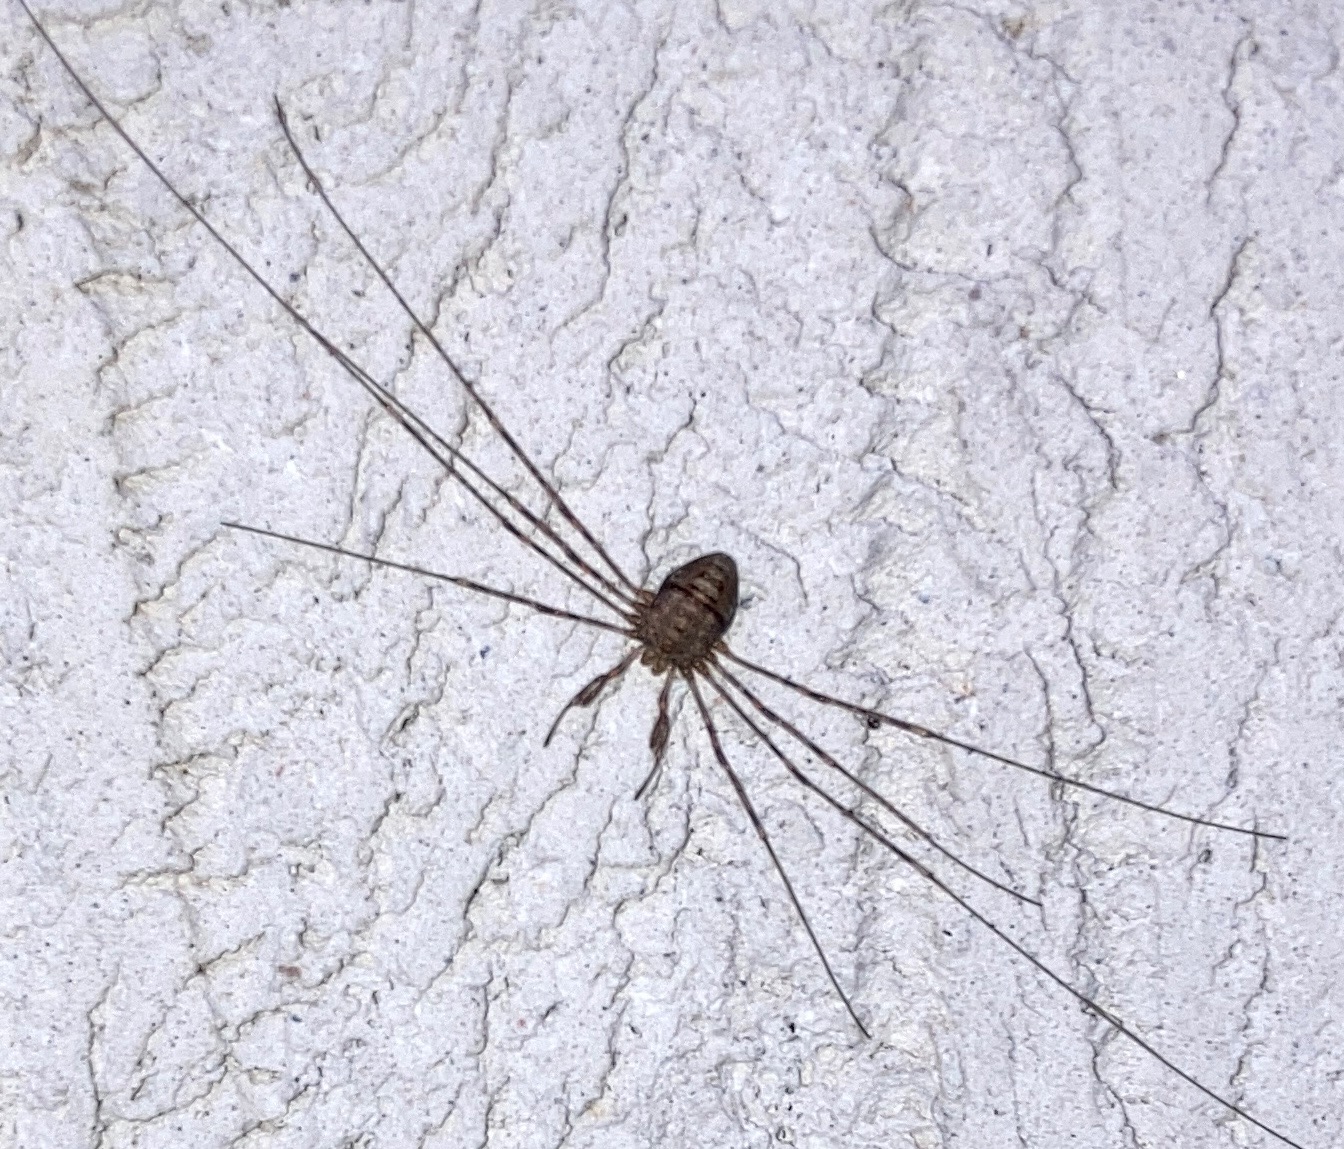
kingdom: Animalia
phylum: Arthropoda
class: Arachnida
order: Opiliones
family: Phalangiidae
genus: Dicranopalpus
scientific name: Dicranopalpus ramosus
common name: Gaffelmejer
